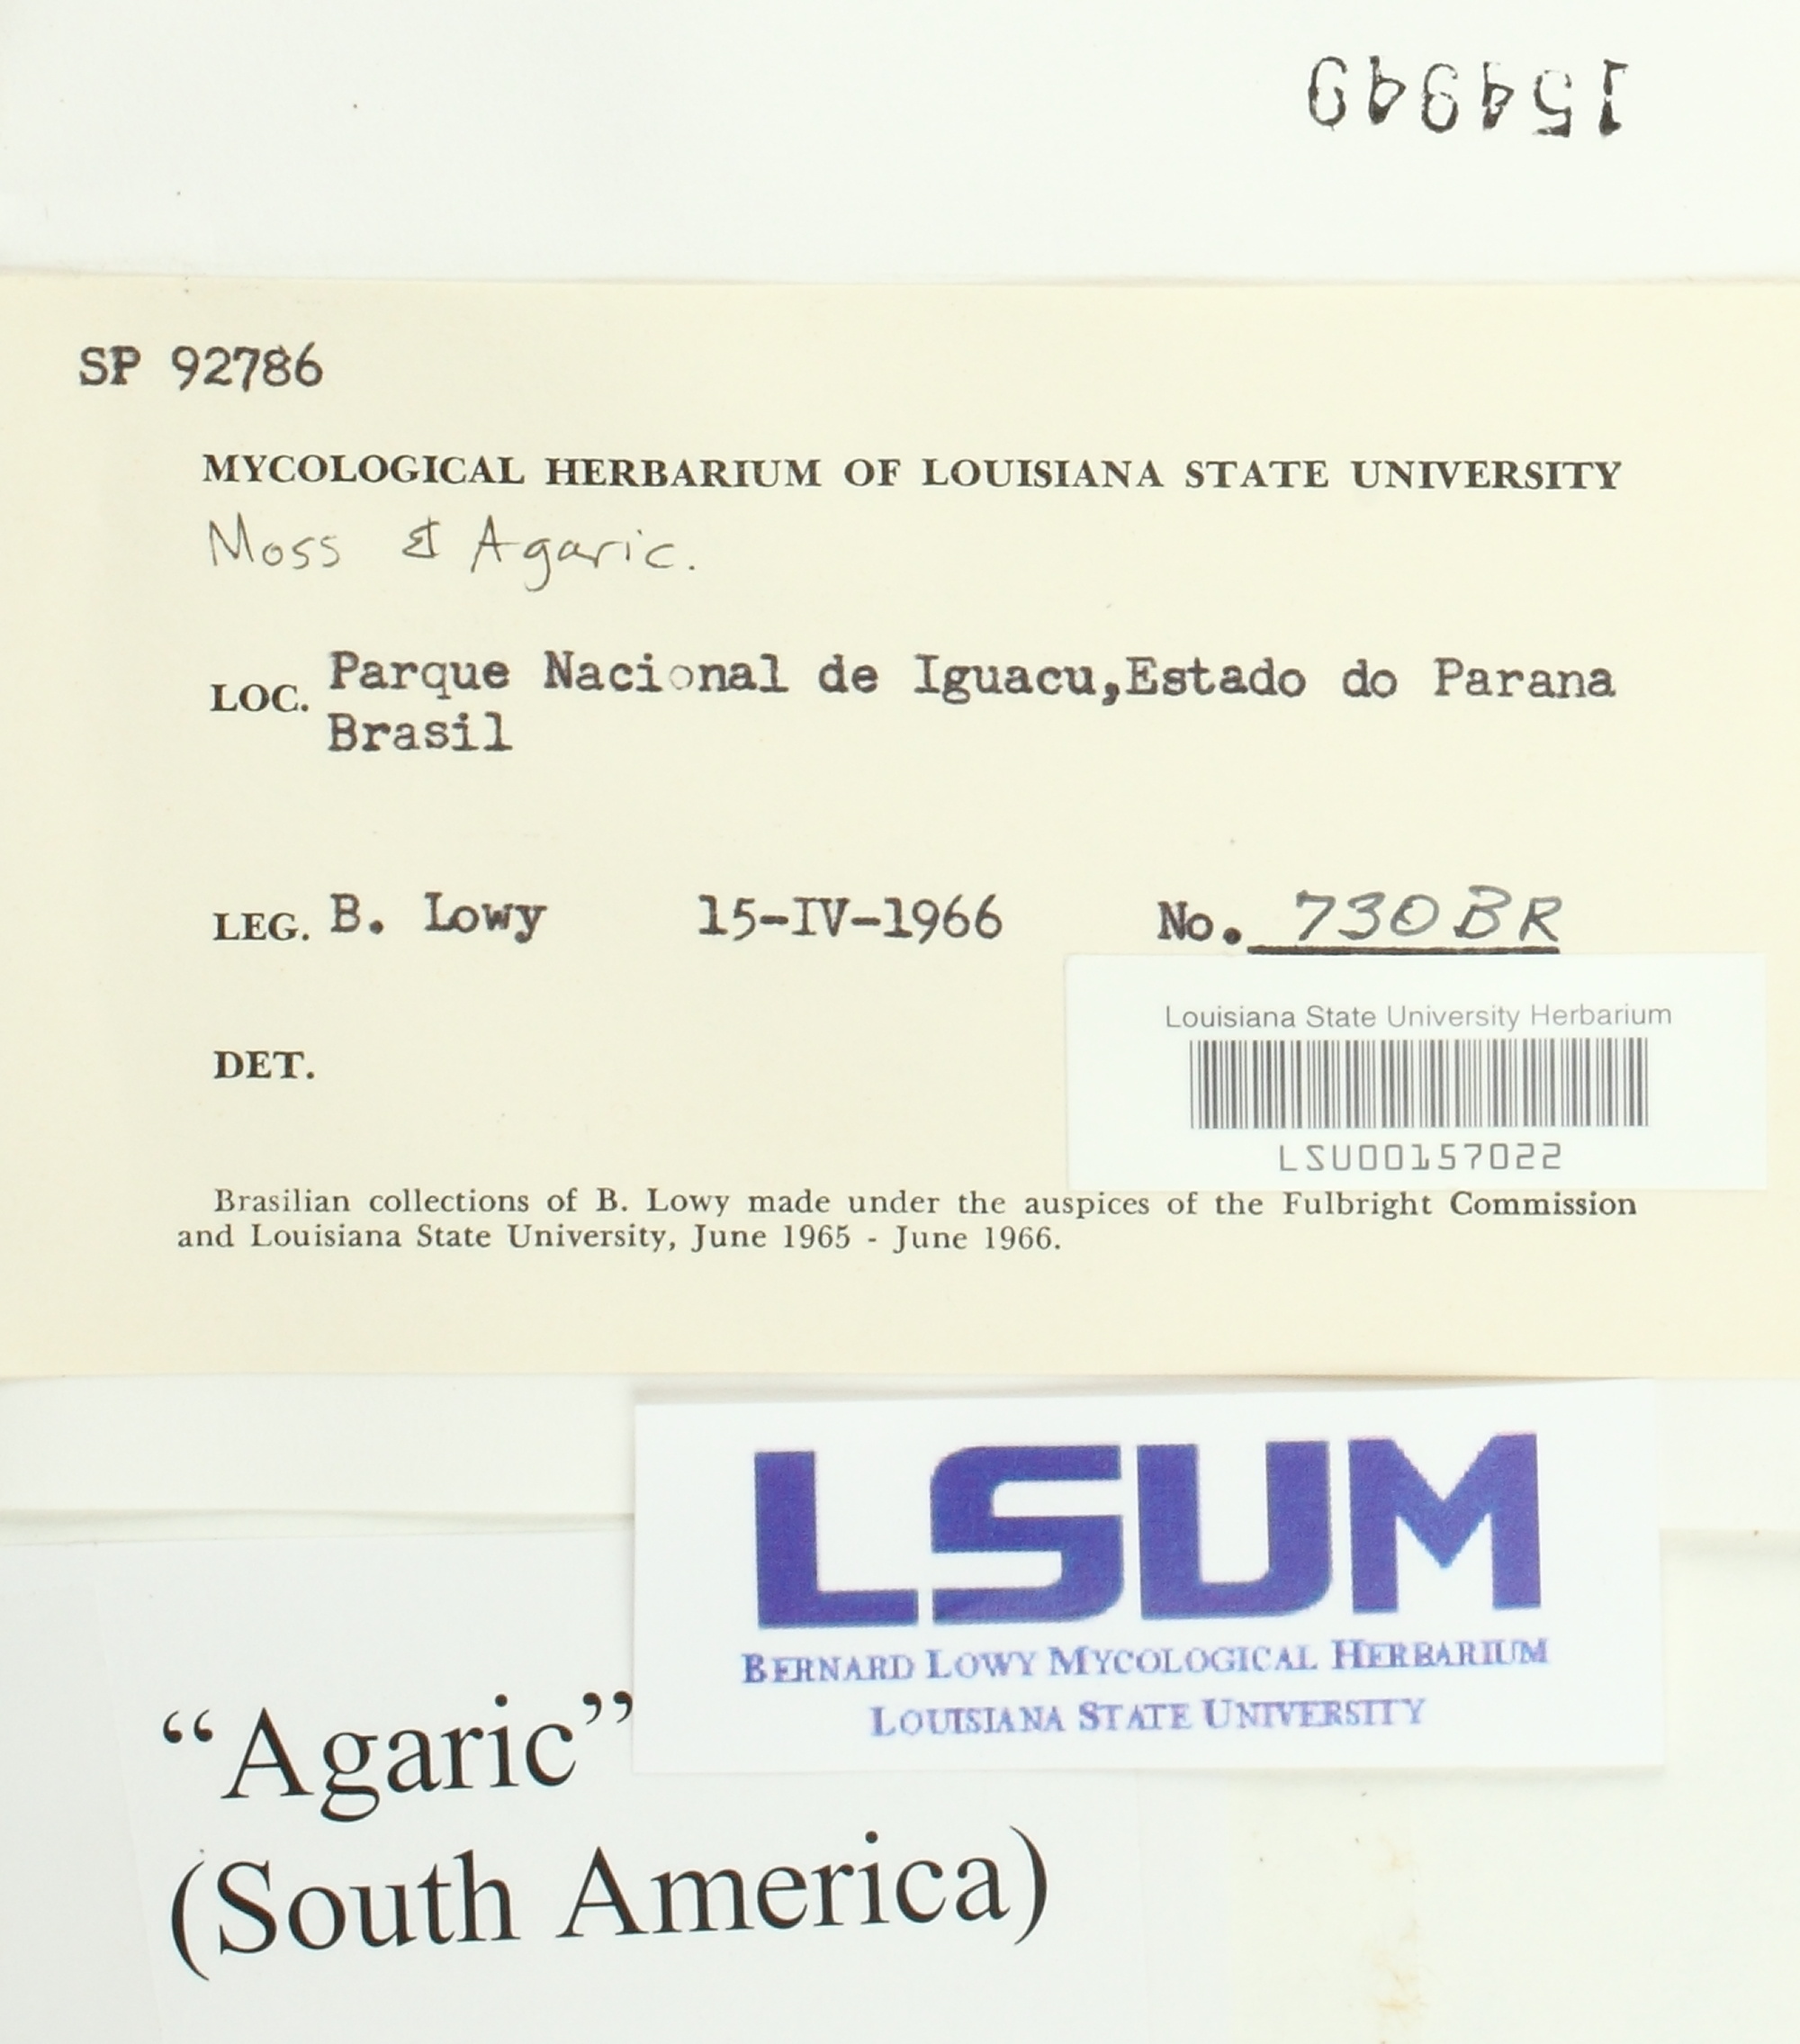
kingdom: Fungi
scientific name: Fungi
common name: Fungi
